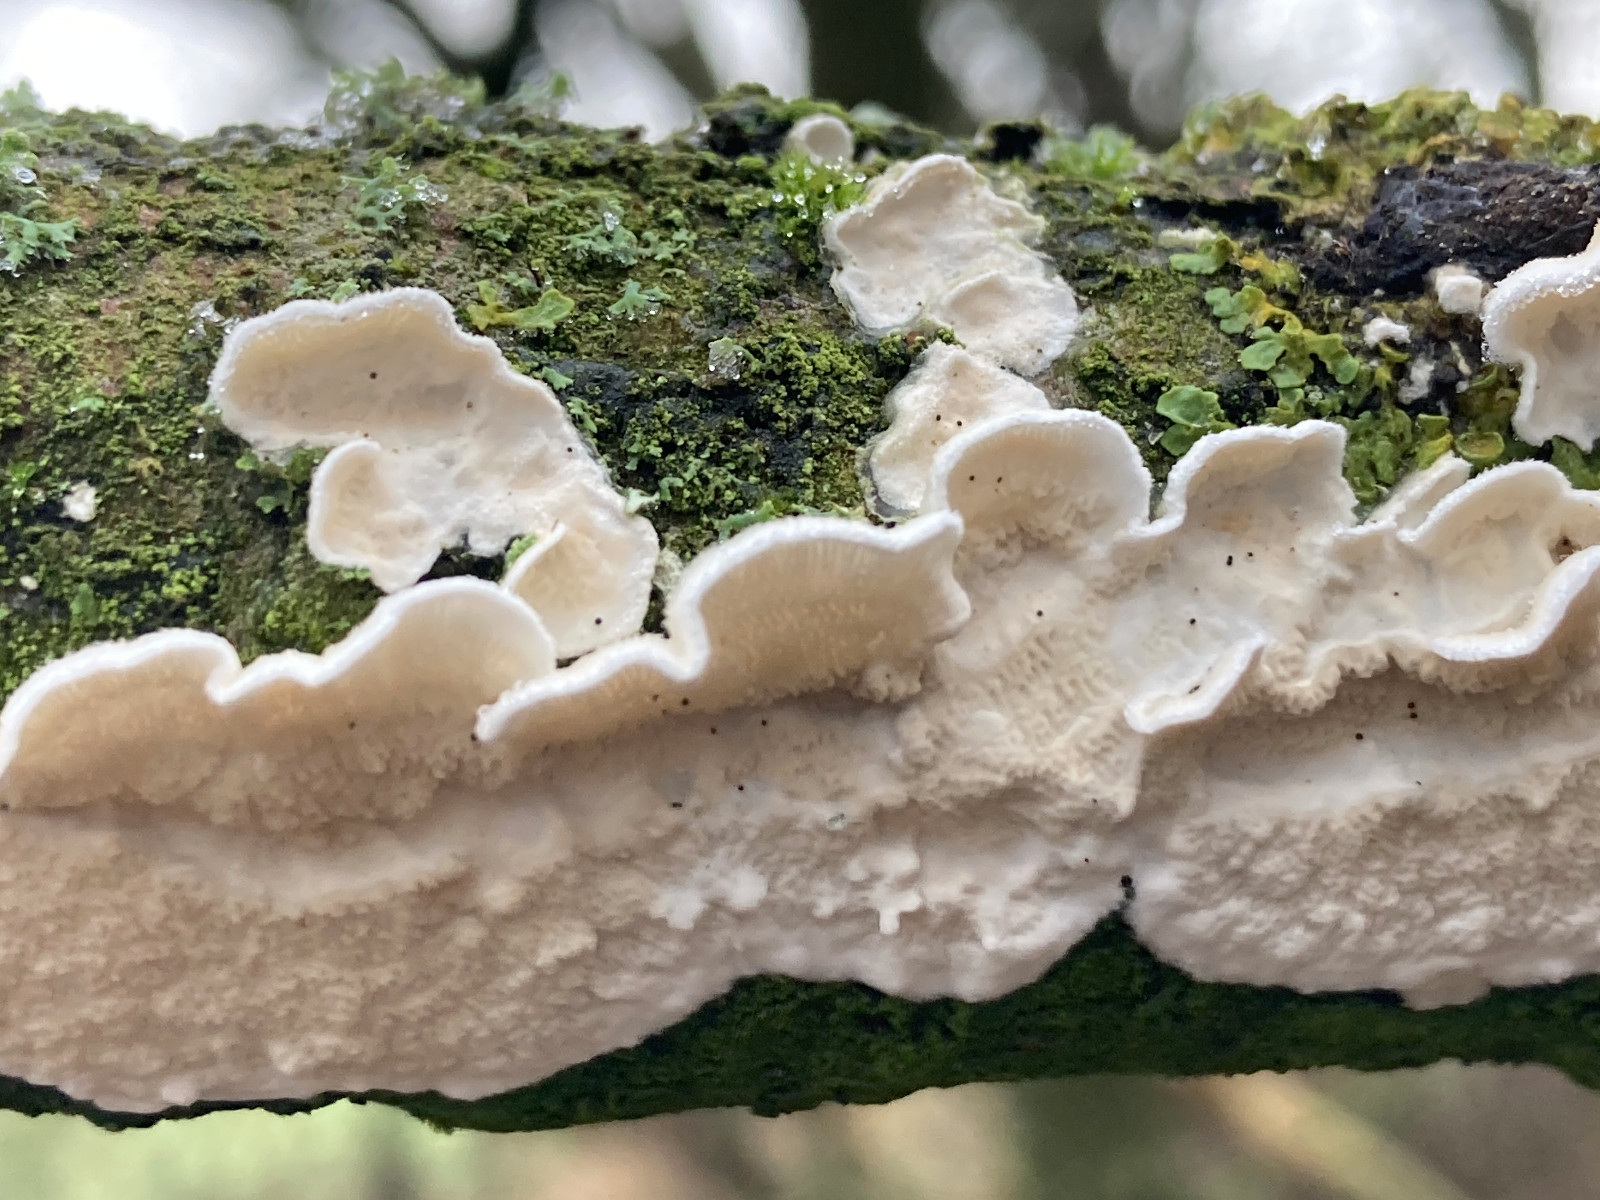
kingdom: Fungi
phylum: Basidiomycota
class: Agaricomycetes
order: Polyporales
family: Irpicaceae
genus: Byssomerulius
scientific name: Byssomerulius corium
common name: læder-åresvamp
